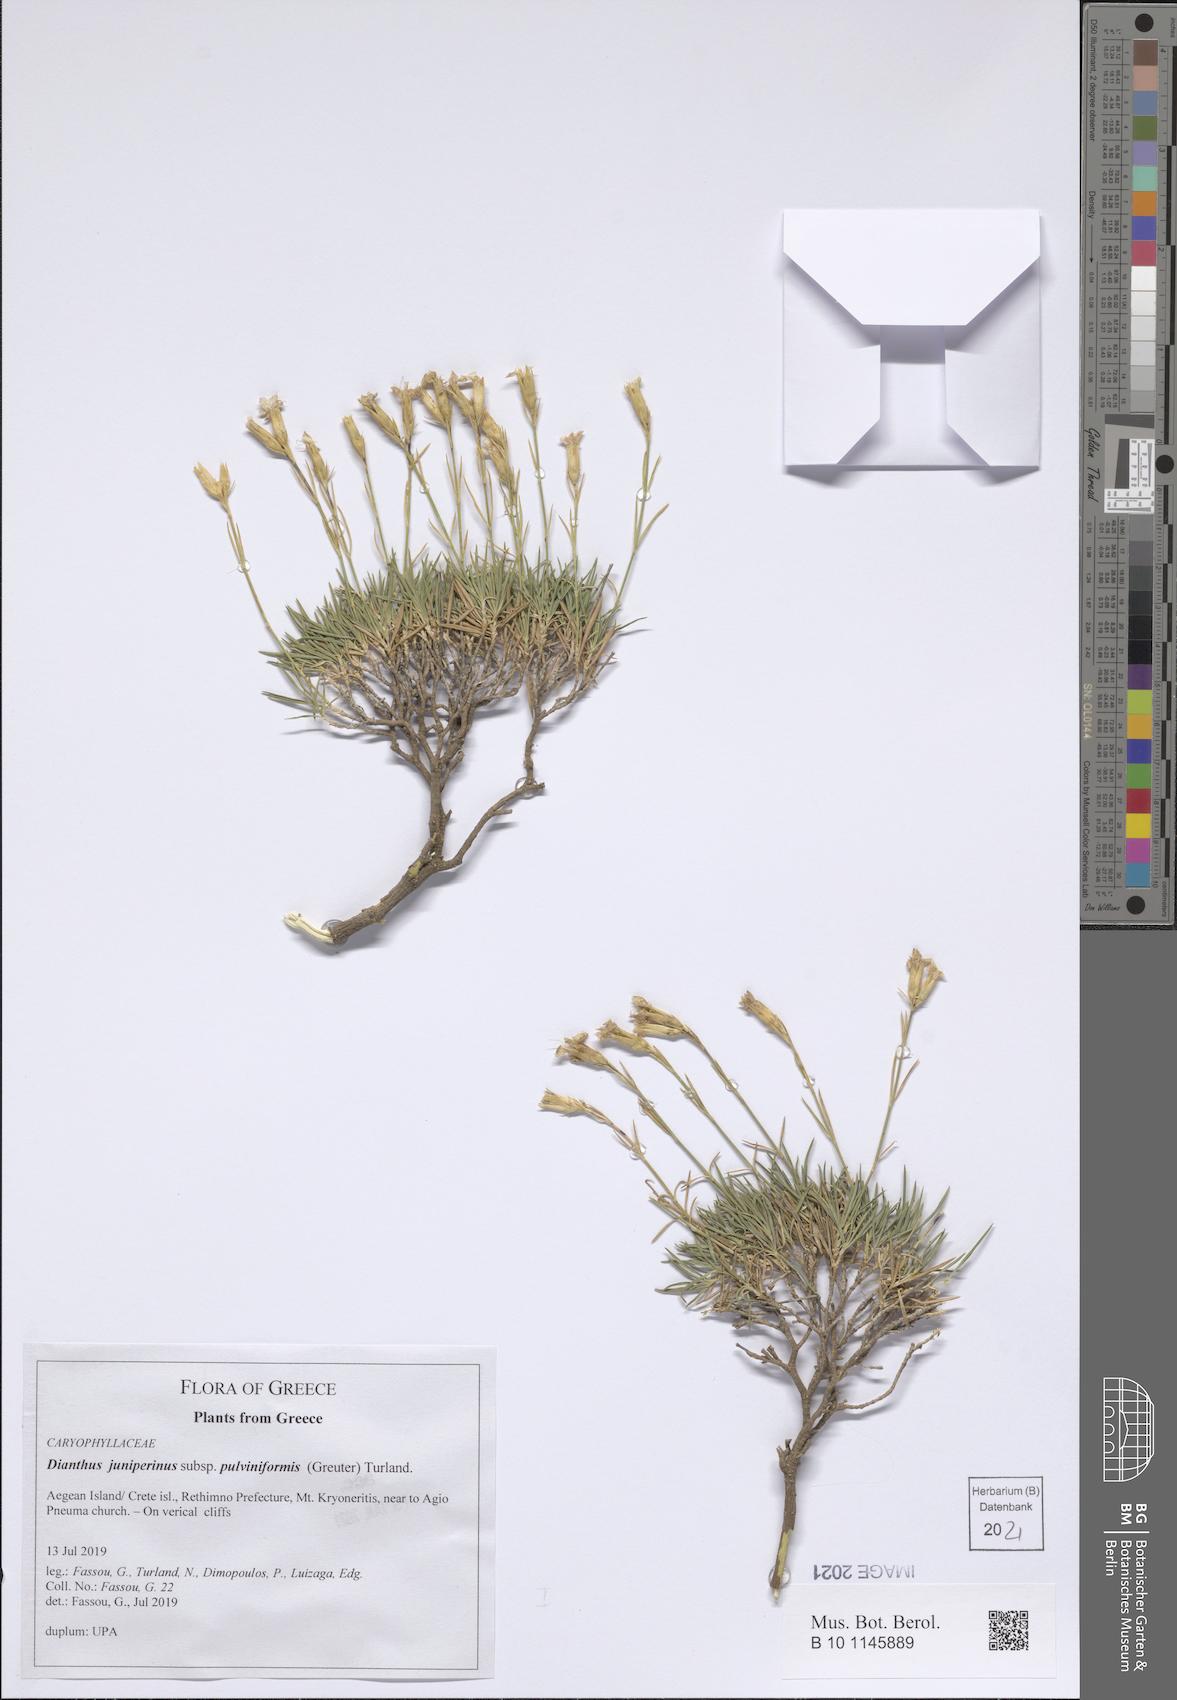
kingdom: Plantae
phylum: Tracheophyta
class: Magnoliopsida
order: Caryophyllales
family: Caryophyllaceae
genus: Dianthus
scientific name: Dianthus juniperinus
